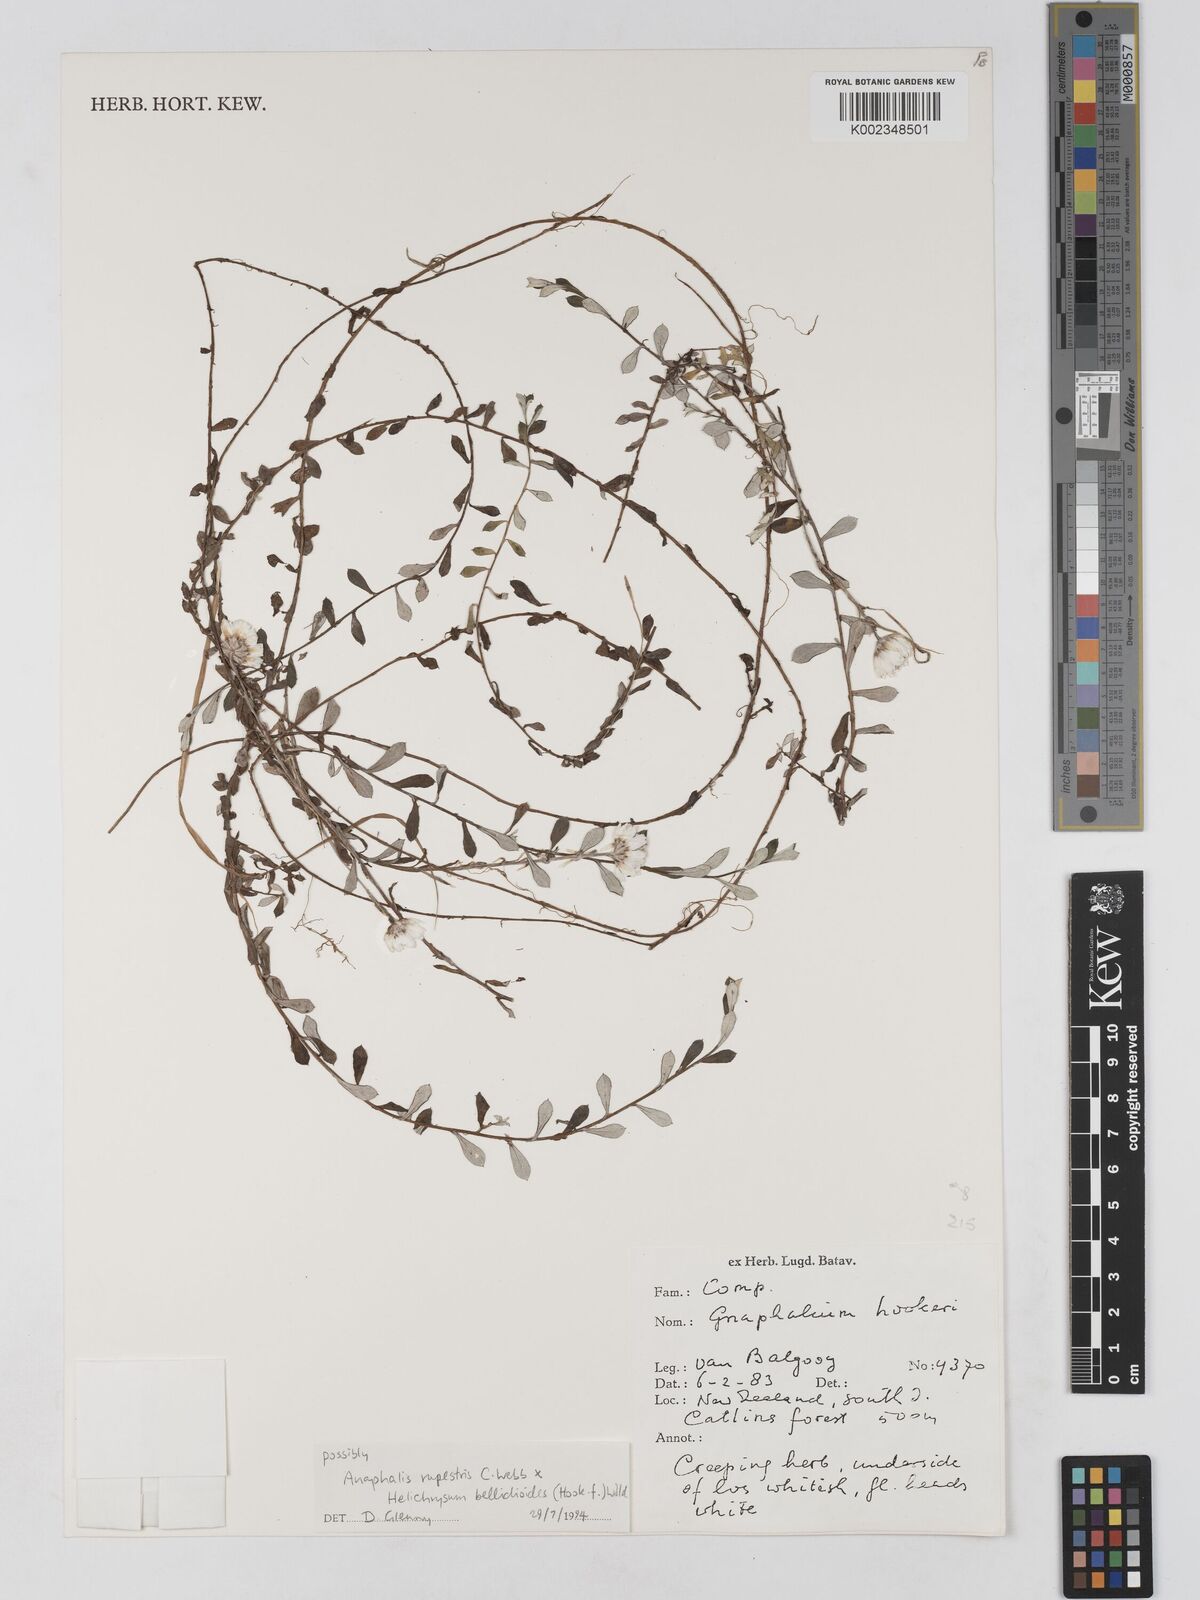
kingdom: Plantae
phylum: Tracheophyta
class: Magnoliopsida
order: Asterales
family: Asteraceae
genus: Anaphaloides
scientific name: Anaphaloides
